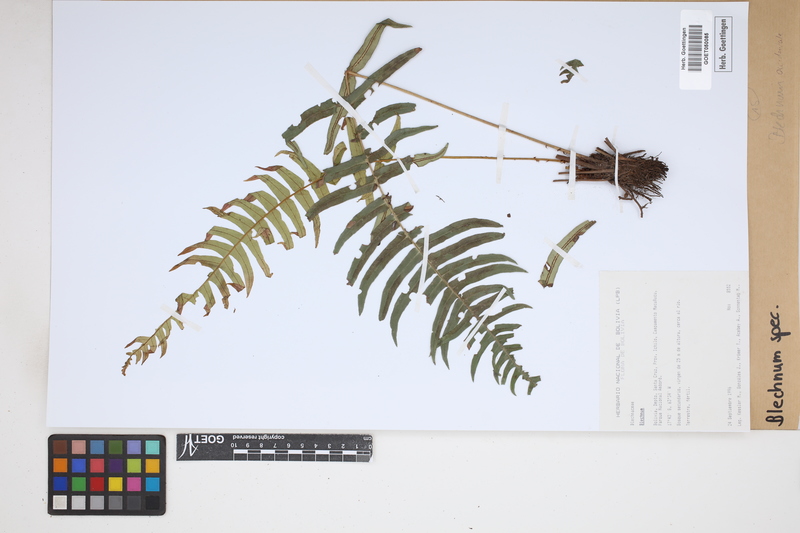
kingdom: Plantae
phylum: Tracheophyta
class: Polypodiopsida
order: Polypodiales
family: Blechnaceae
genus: Blechnum
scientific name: Blechnum
